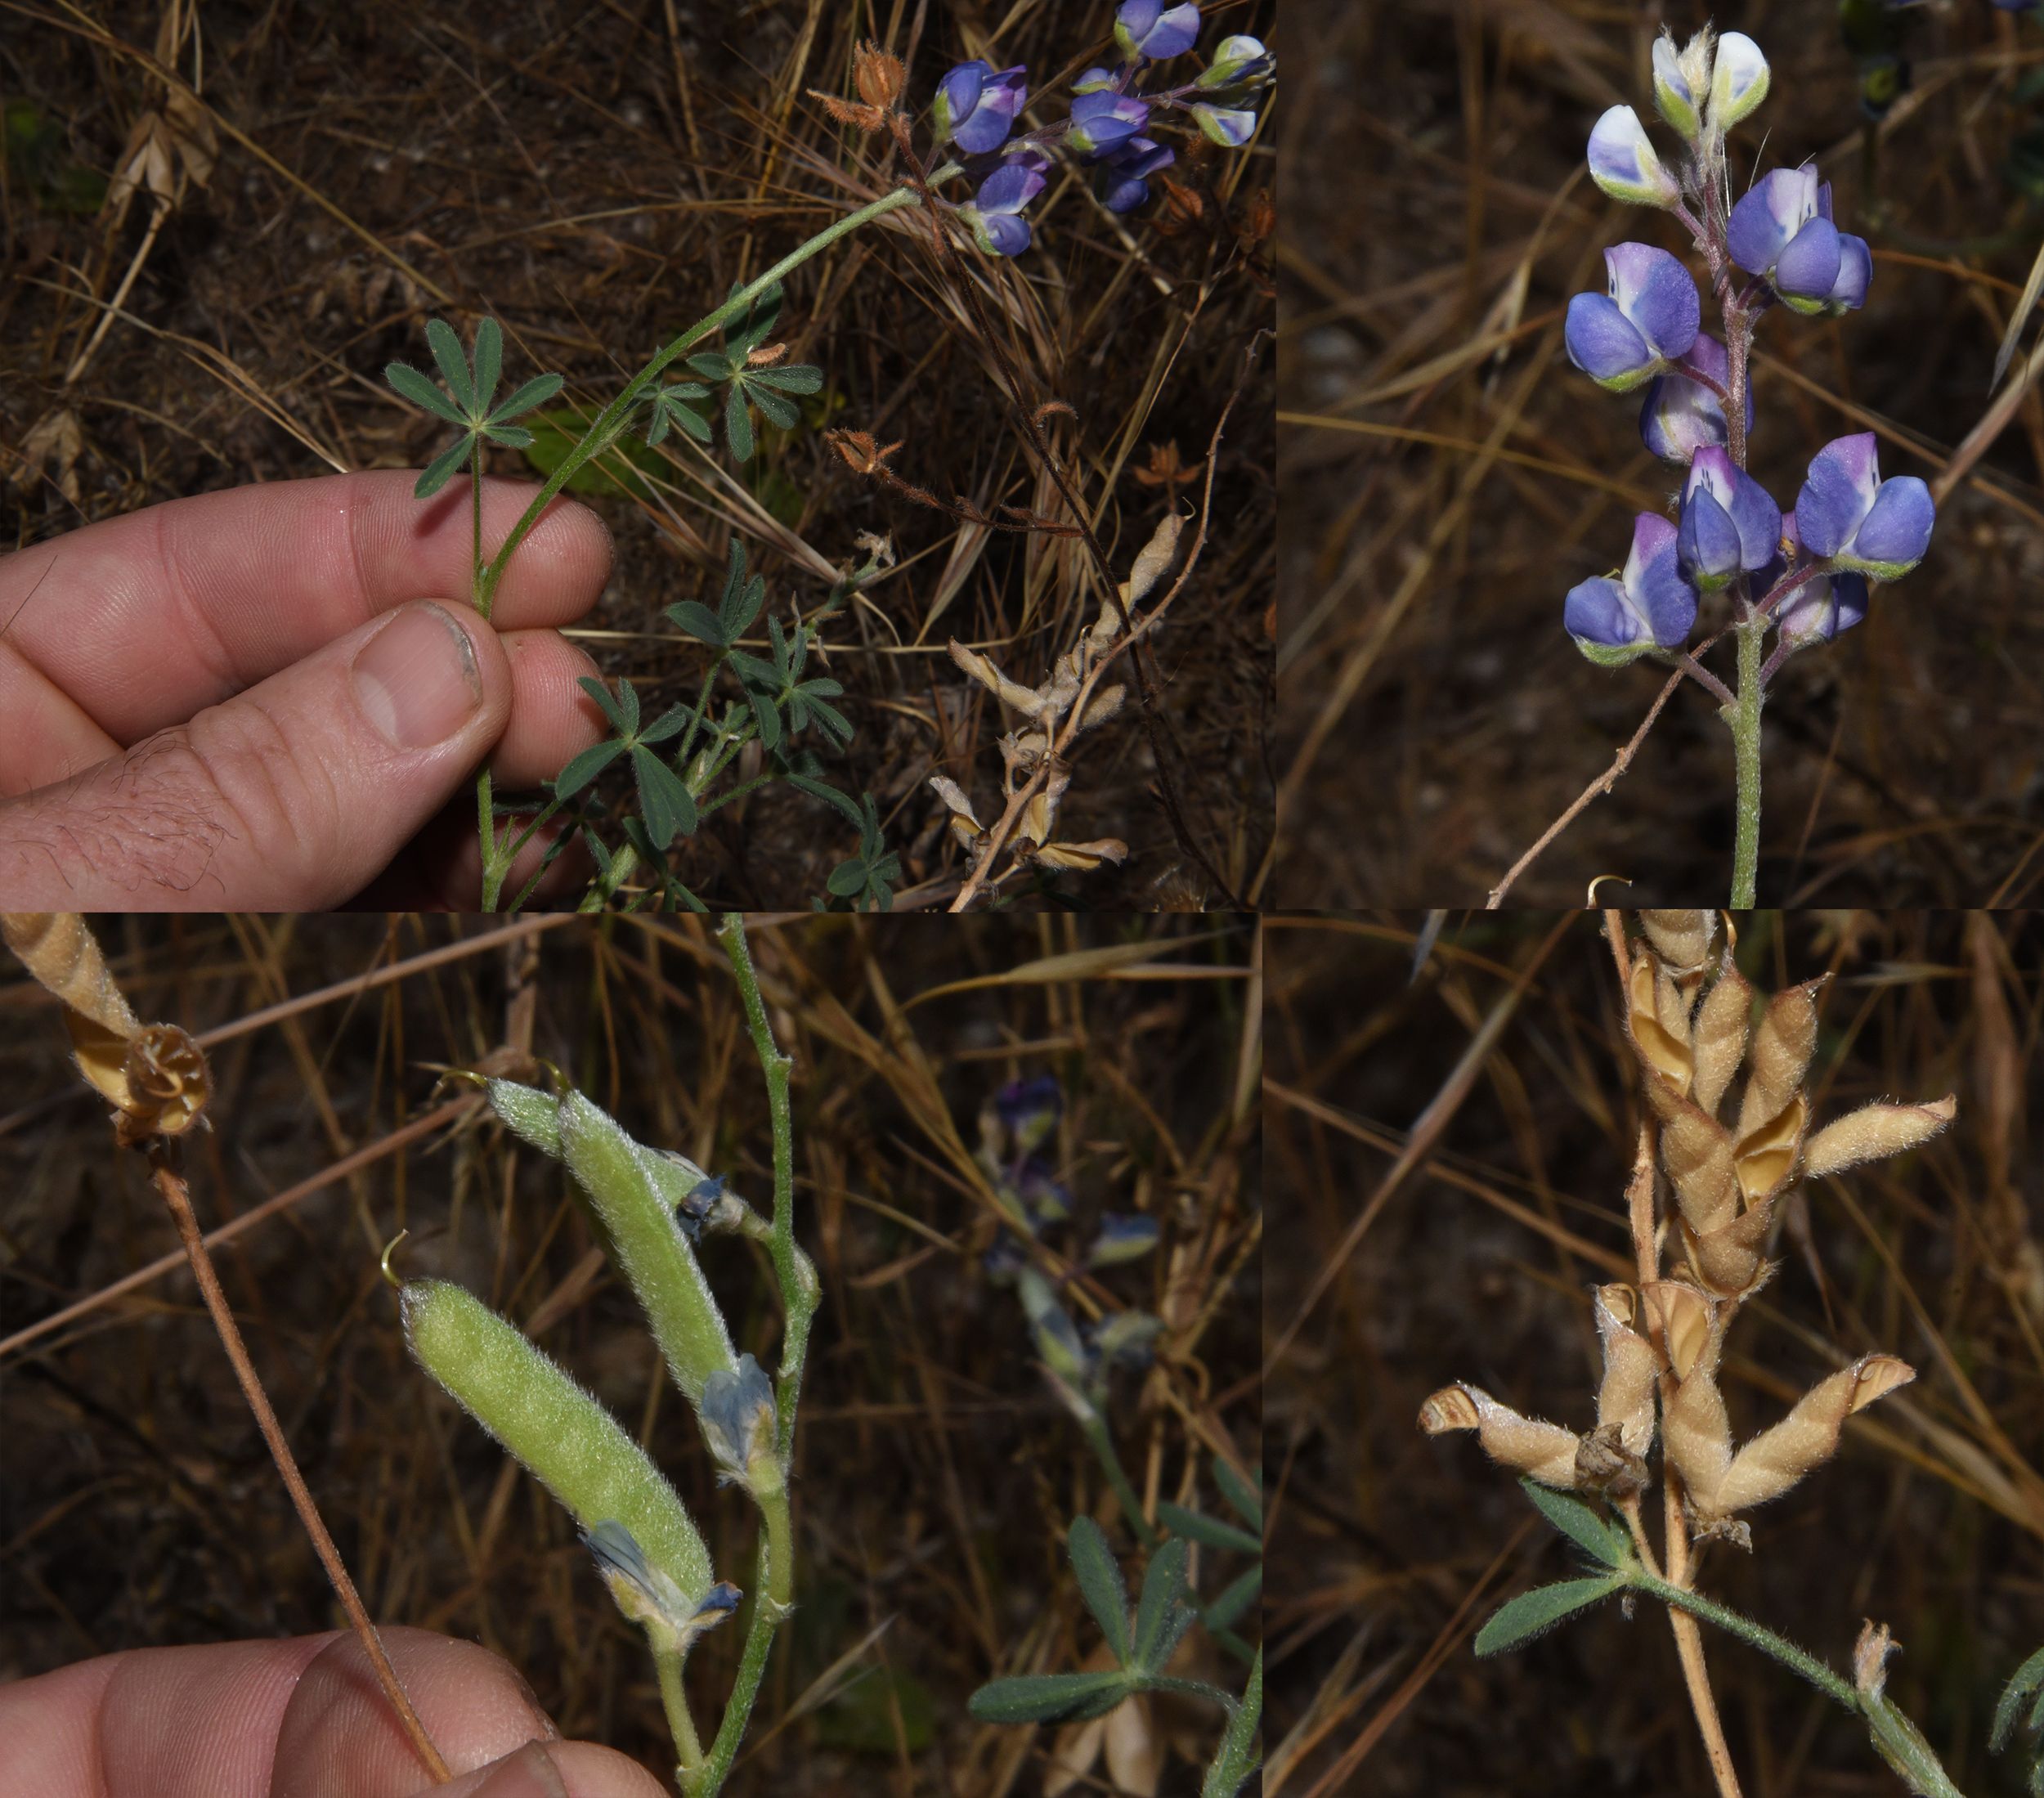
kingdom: Plantae
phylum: Tracheophyta
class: Magnoliopsida
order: Fabales
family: Fabaceae
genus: Lupinus
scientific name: Lupinus
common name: Lupine
